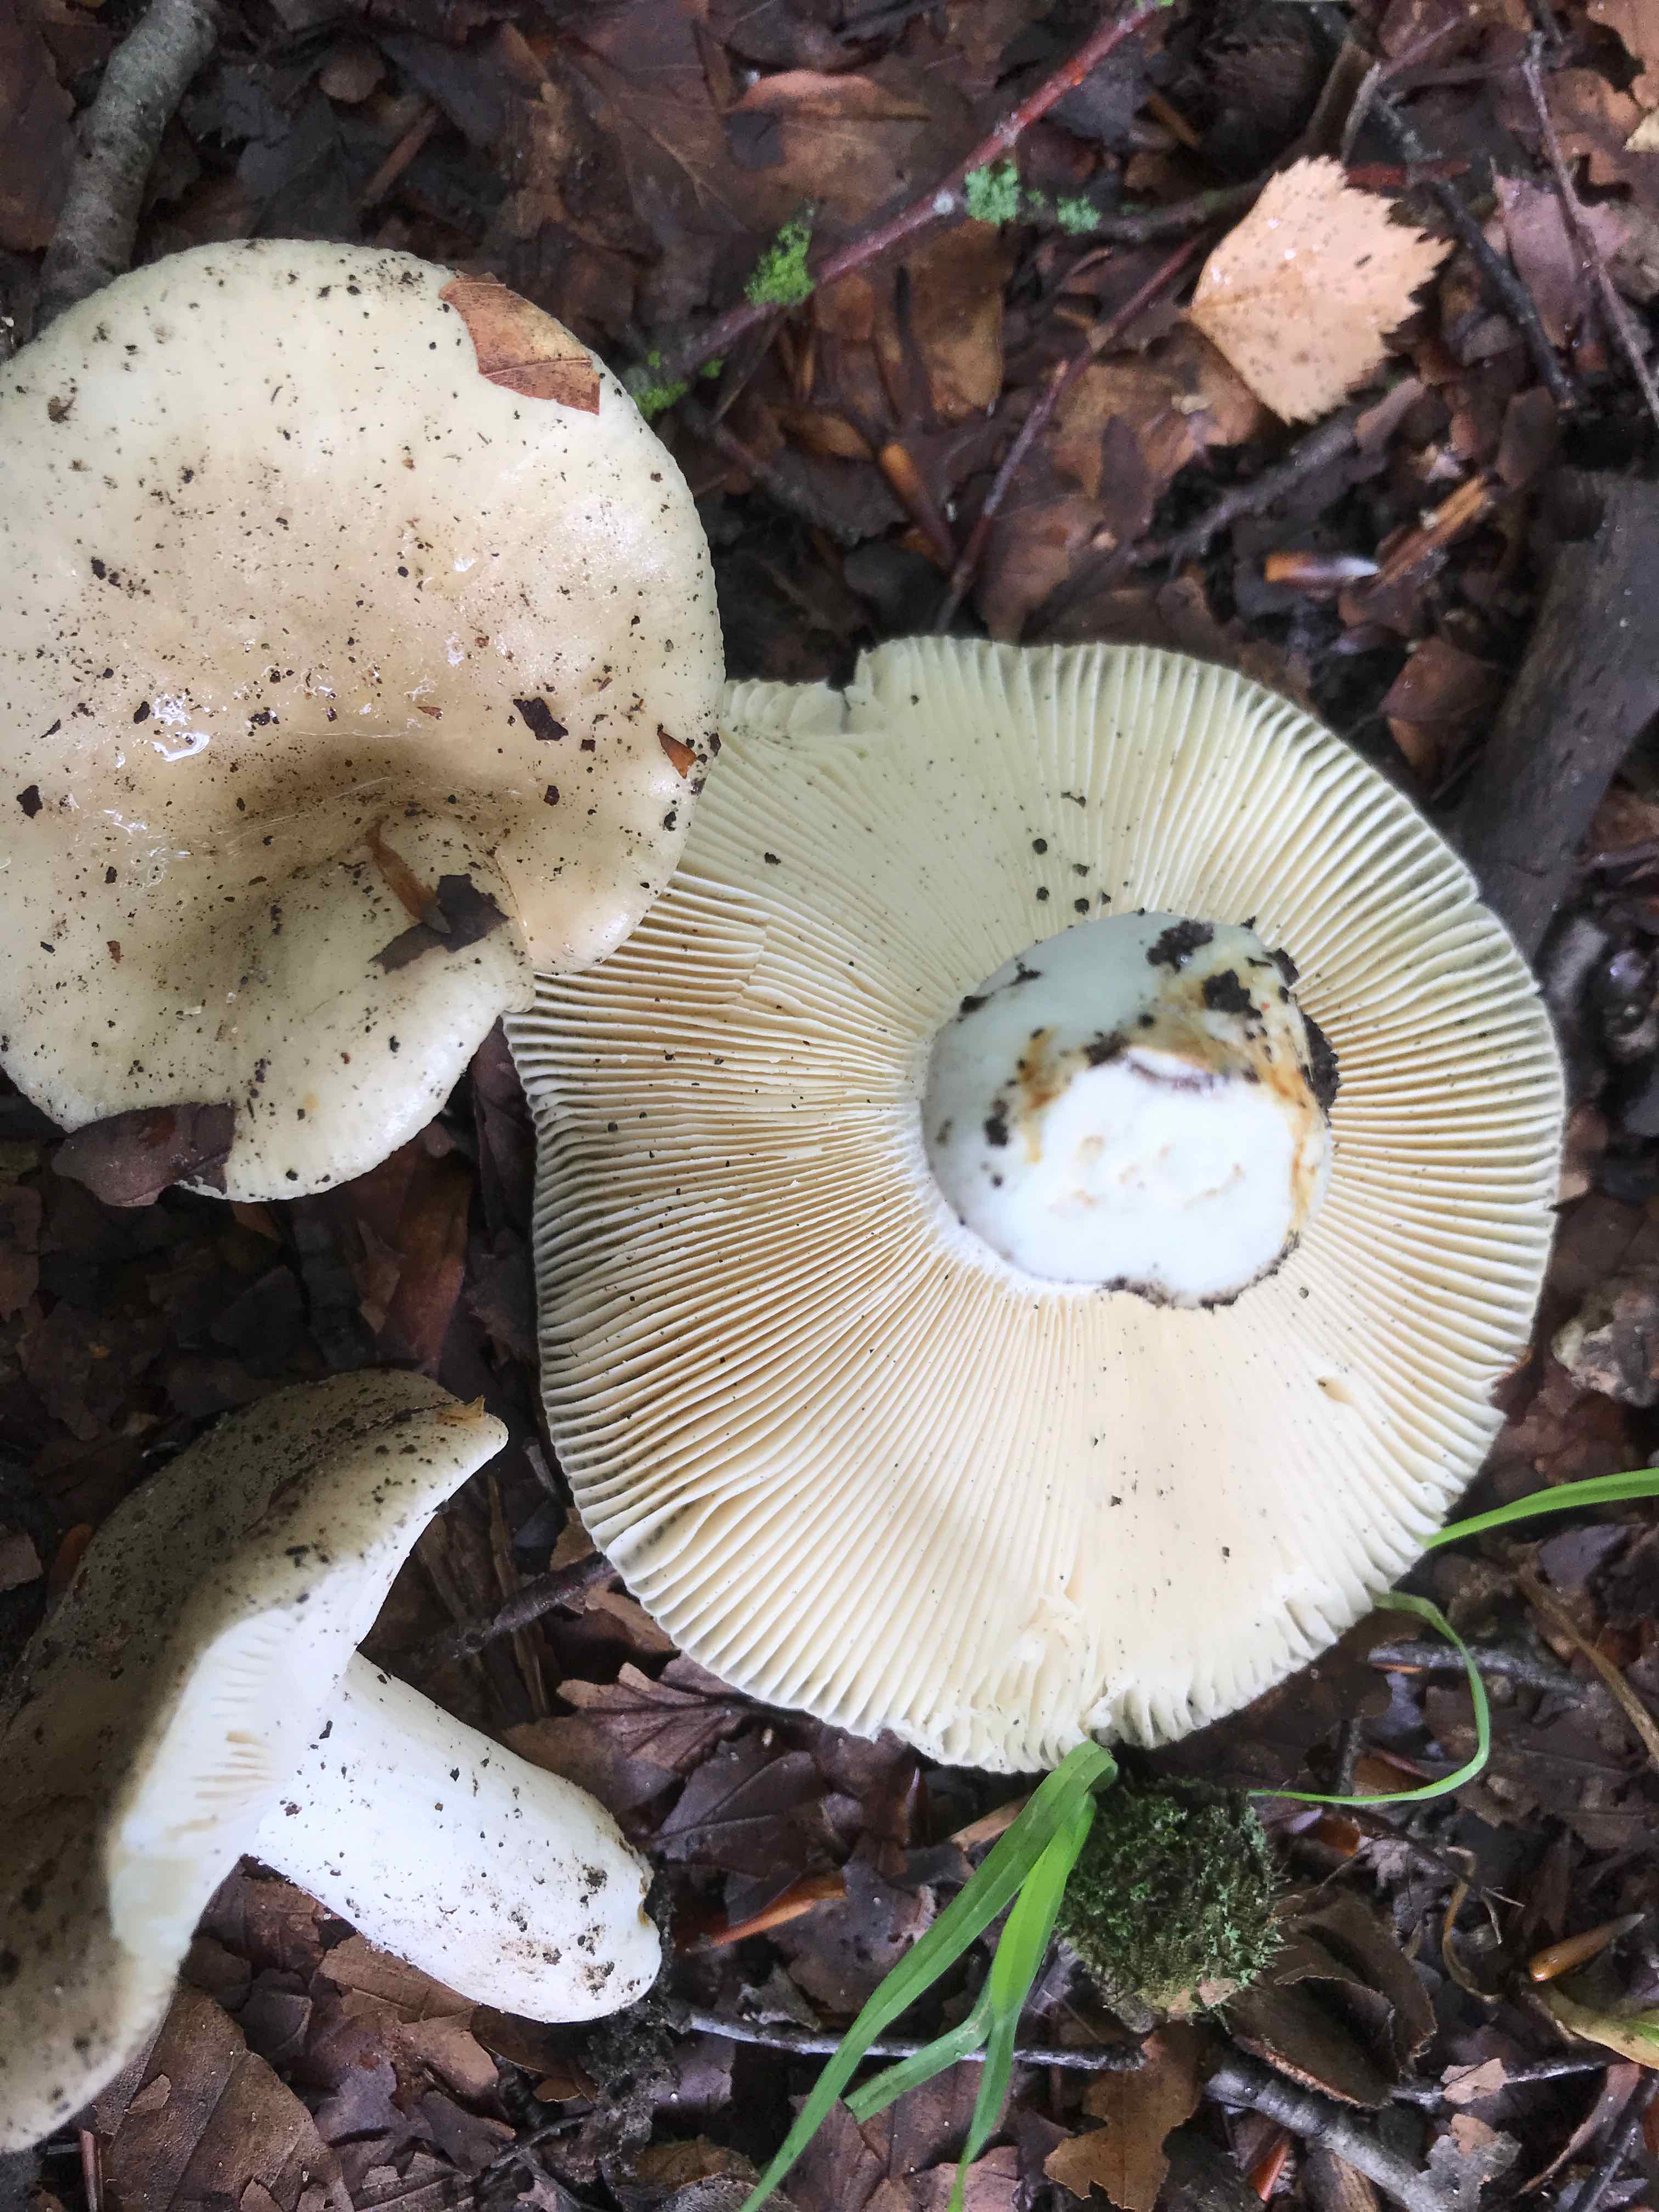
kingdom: Fungi
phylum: Basidiomycota
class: Agaricomycetes
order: Russulales
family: Russulaceae
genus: Russula
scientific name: Russula
